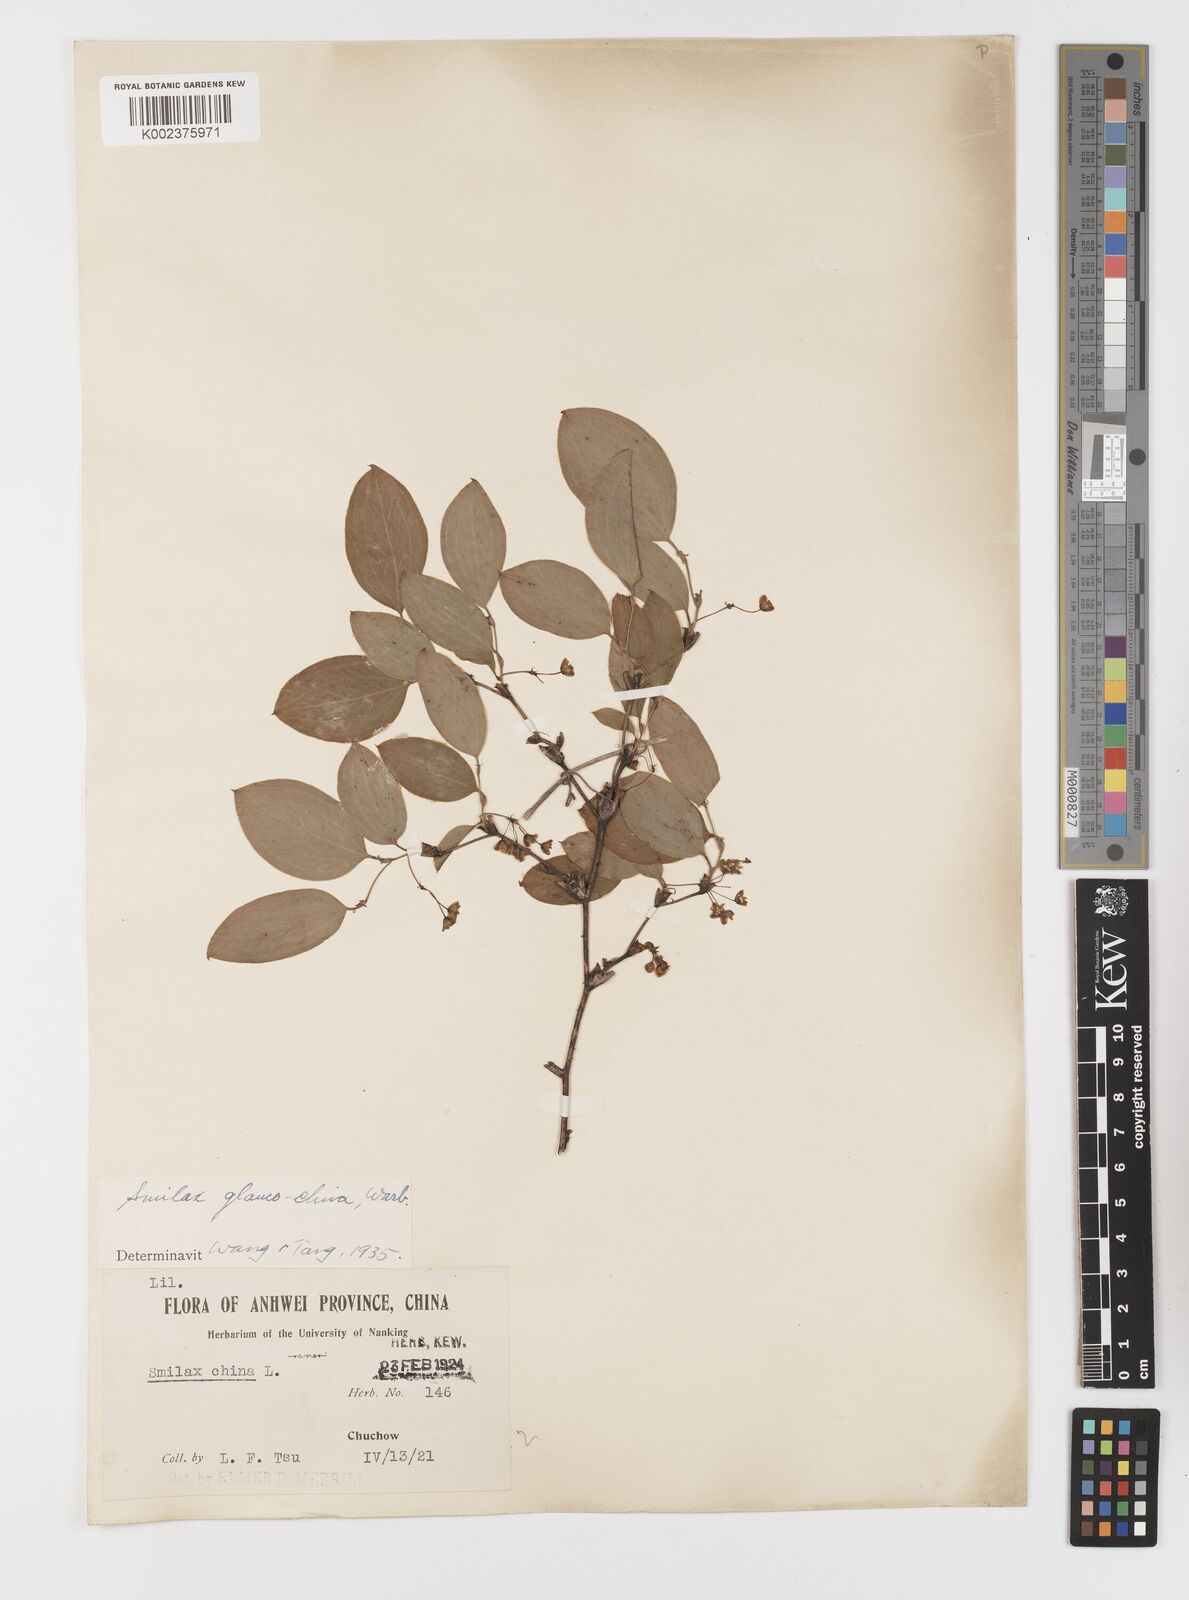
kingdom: Plantae
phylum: Tracheophyta
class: Liliopsida
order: Liliales
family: Smilacaceae
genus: Smilax
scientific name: Smilax glaucochina
